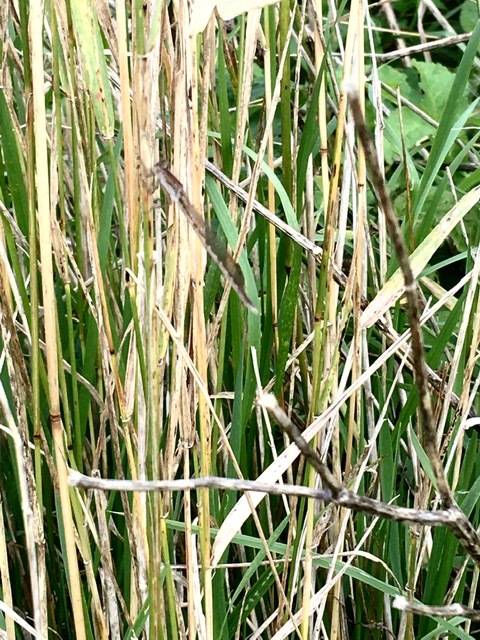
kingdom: Animalia
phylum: Arthropoda
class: Insecta
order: Odonata
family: Lestidae
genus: Sympecma
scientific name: Sympecma paedisca
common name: Siberian winter damsel
